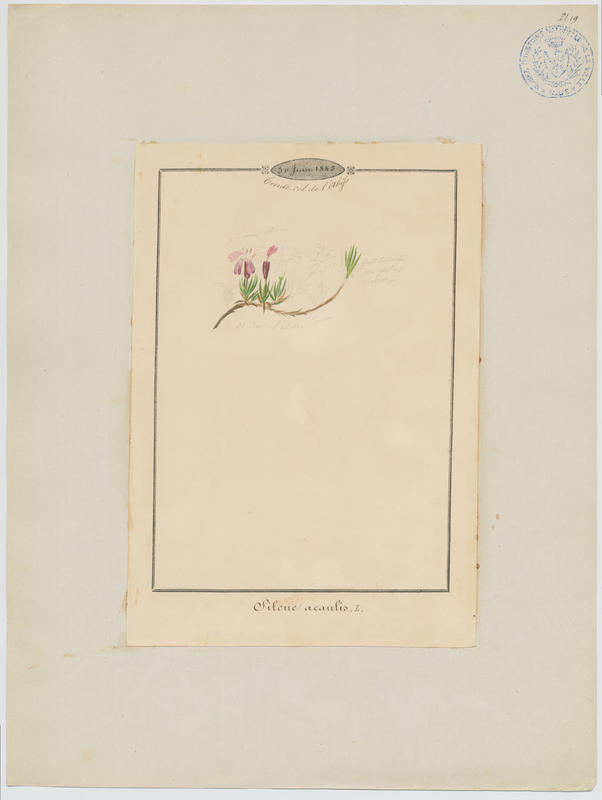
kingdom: Plantae
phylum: Tracheophyta
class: Magnoliopsida
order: Caryophyllales
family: Caryophyllaceae
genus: Silene
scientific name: Silene acaulis
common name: Moss campion
